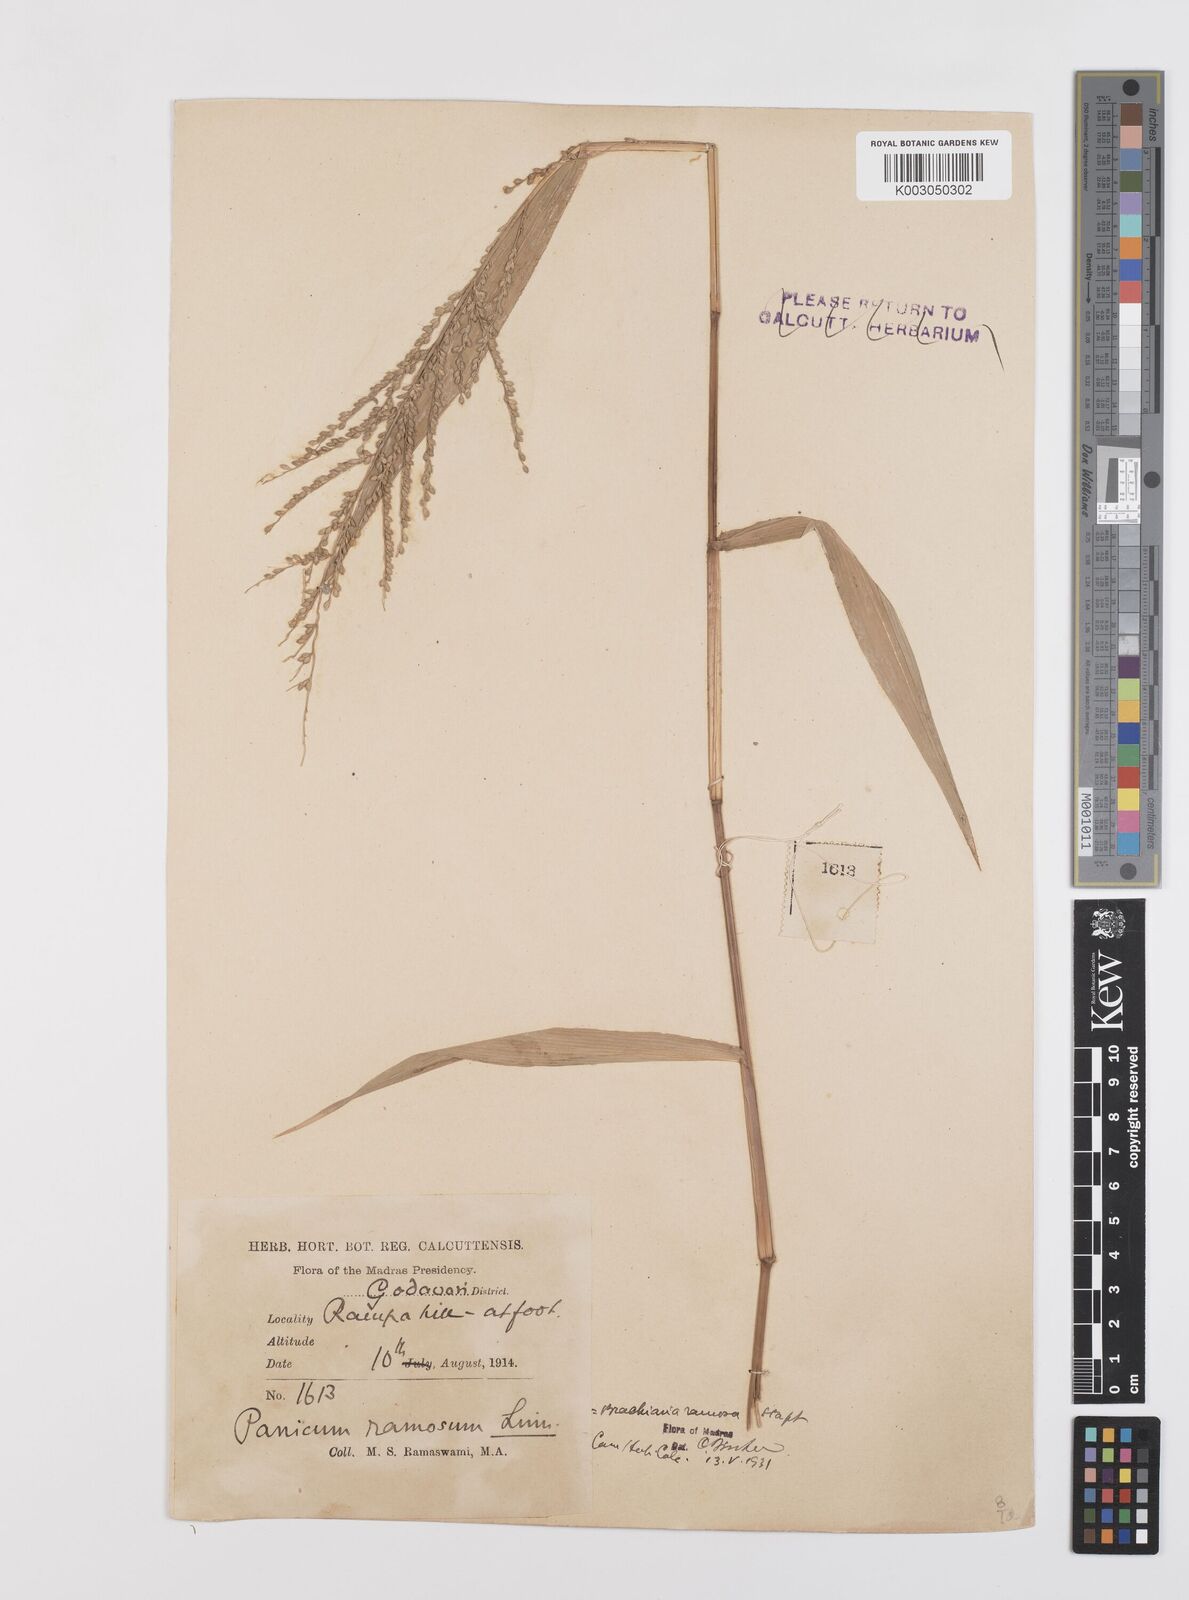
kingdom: Plantae
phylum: Tracheophyta
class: Liliopsida
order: Poales
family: Poaceae
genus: Urochloa
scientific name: Urochloa ramosa
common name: Browntop millet
